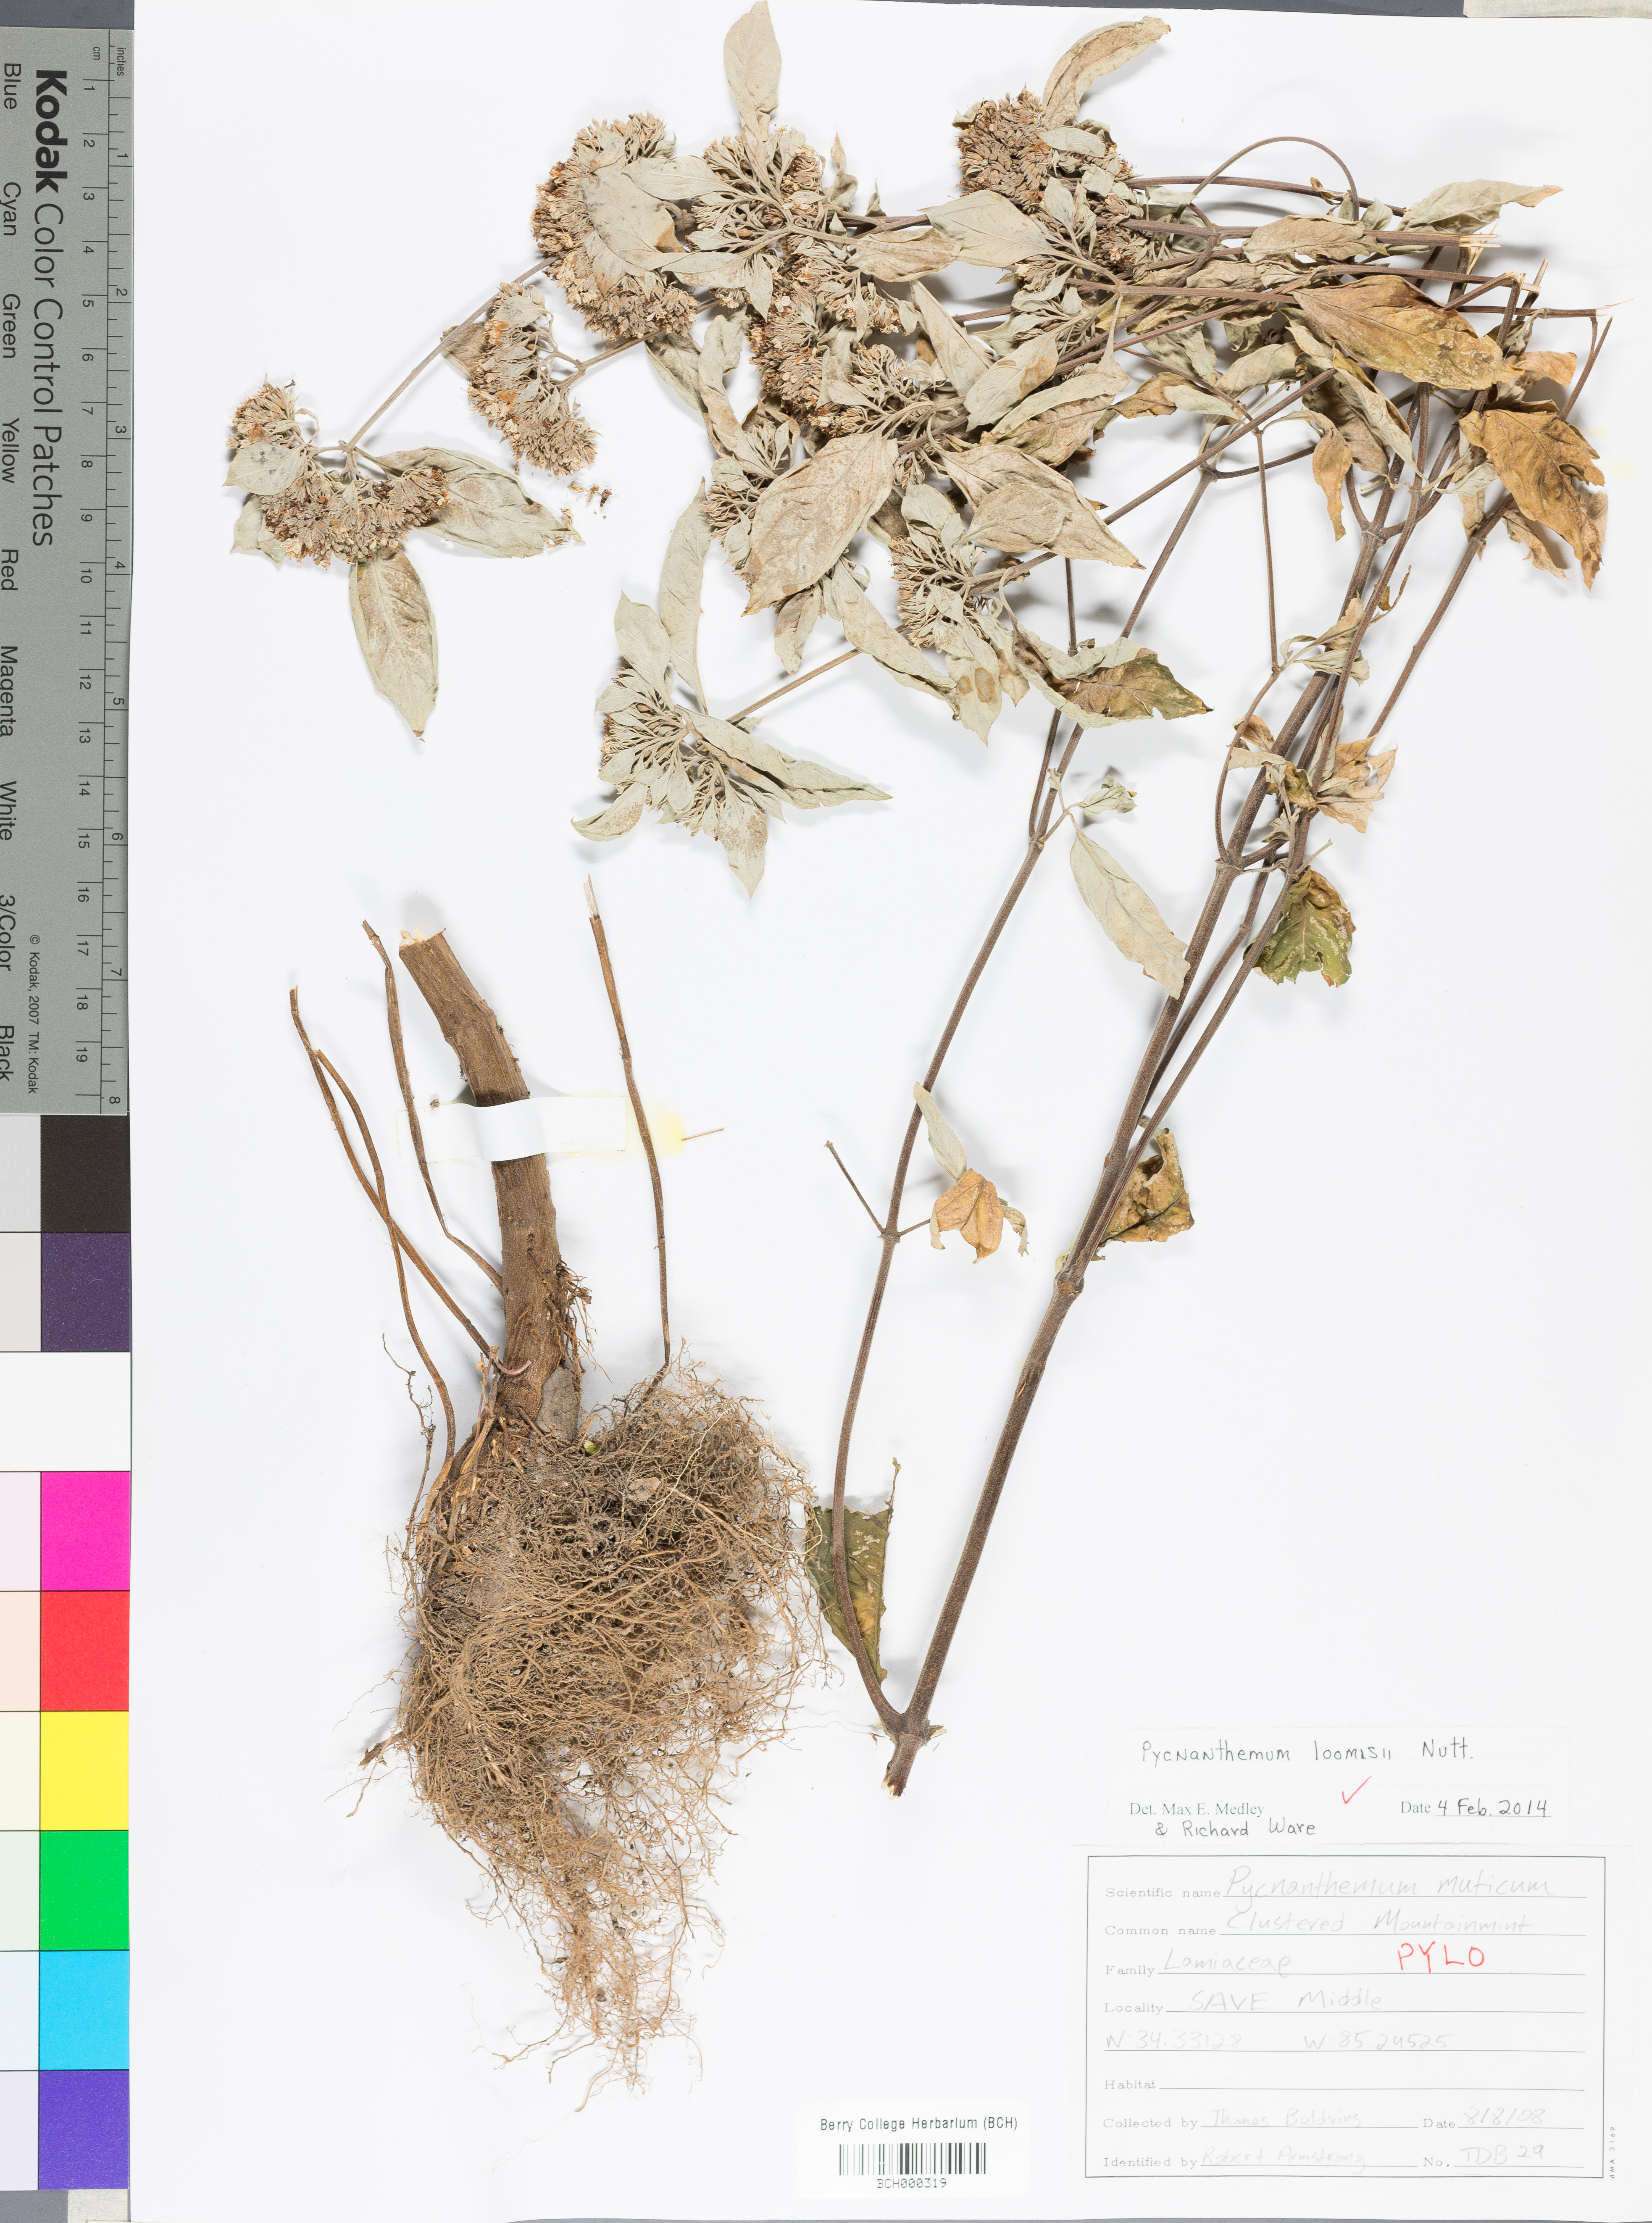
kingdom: Plantae
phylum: Tracheophyta
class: Magnoliopsida
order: Lamiales
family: Lamiaceae
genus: Pycnanthemum
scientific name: Pycnanthemum loomisii
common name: Loomis's mountain-mint
